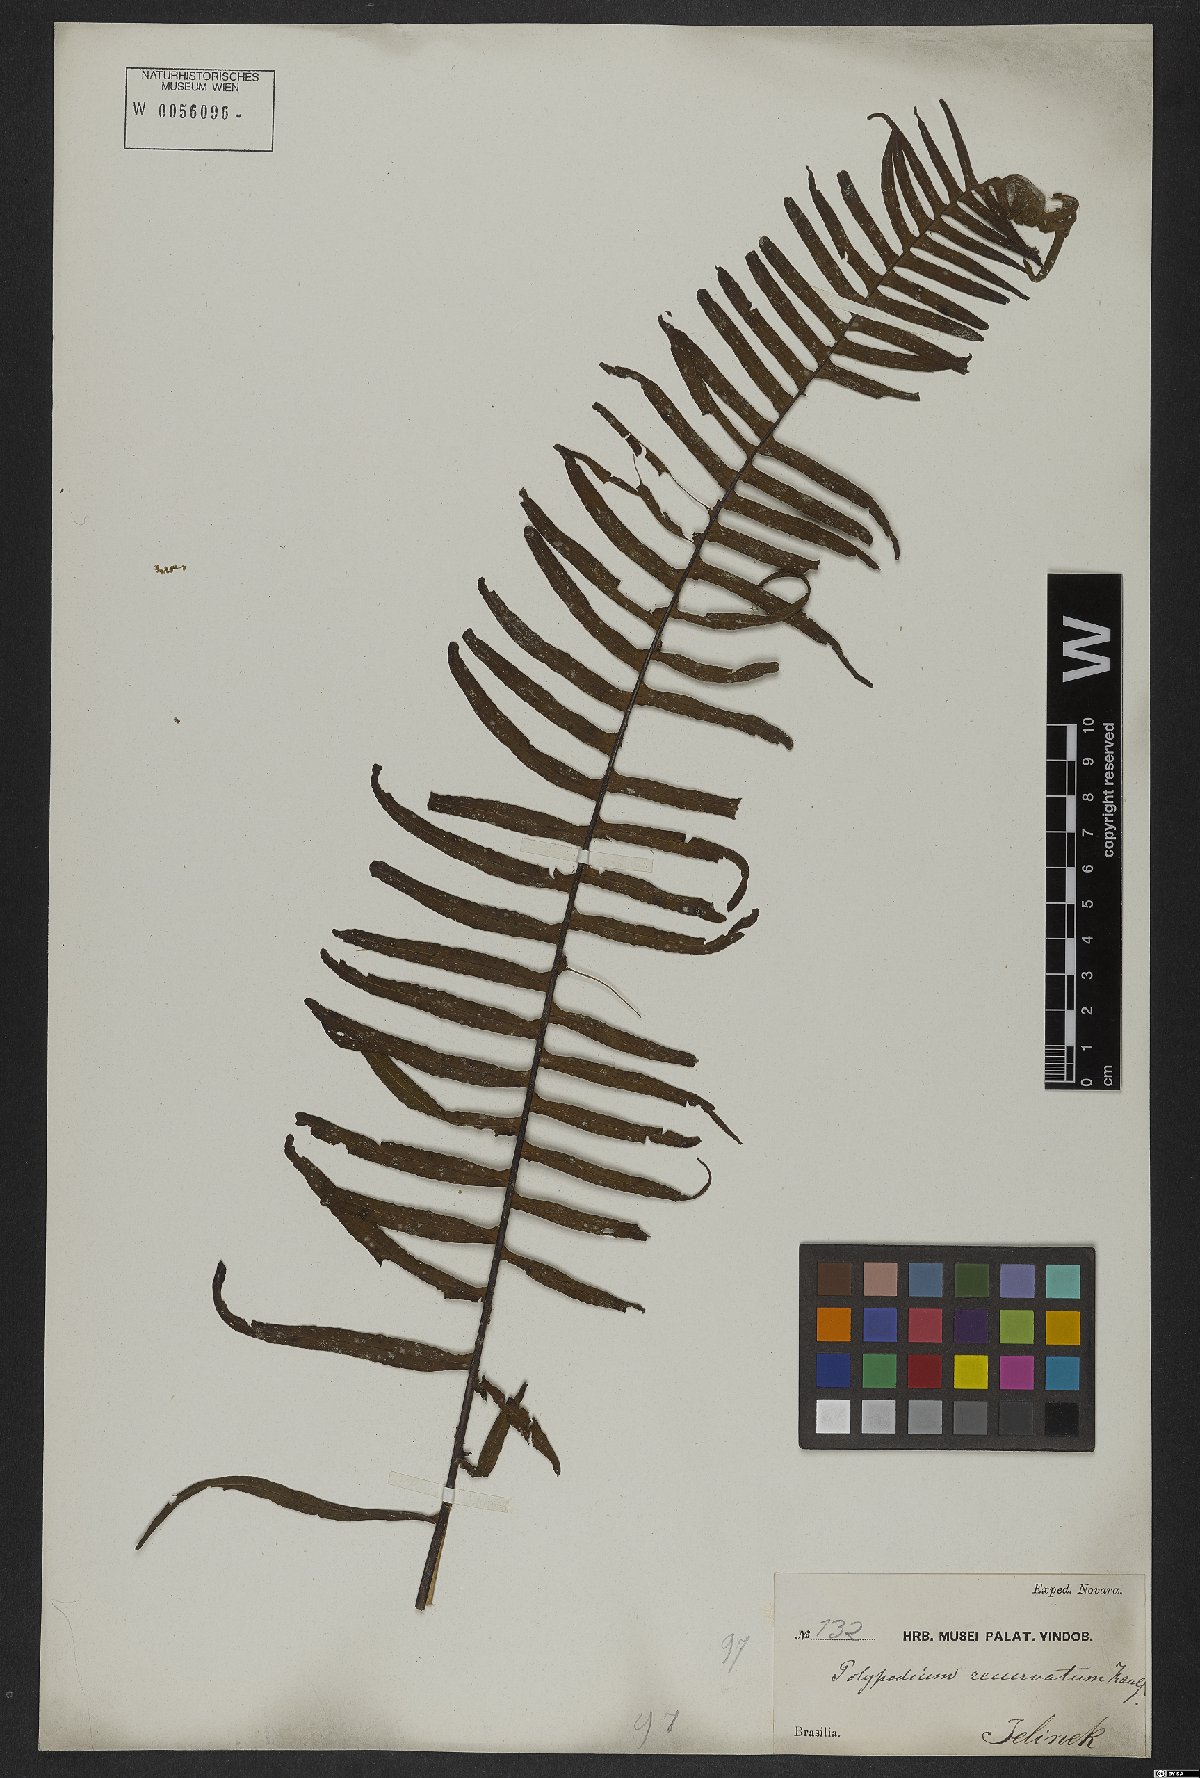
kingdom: Plantae
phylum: Tracheophyta
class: Polypodiopsida
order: Polypodiales
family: Polypodiaceae
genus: Pecluma
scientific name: Pecluma recurvata
